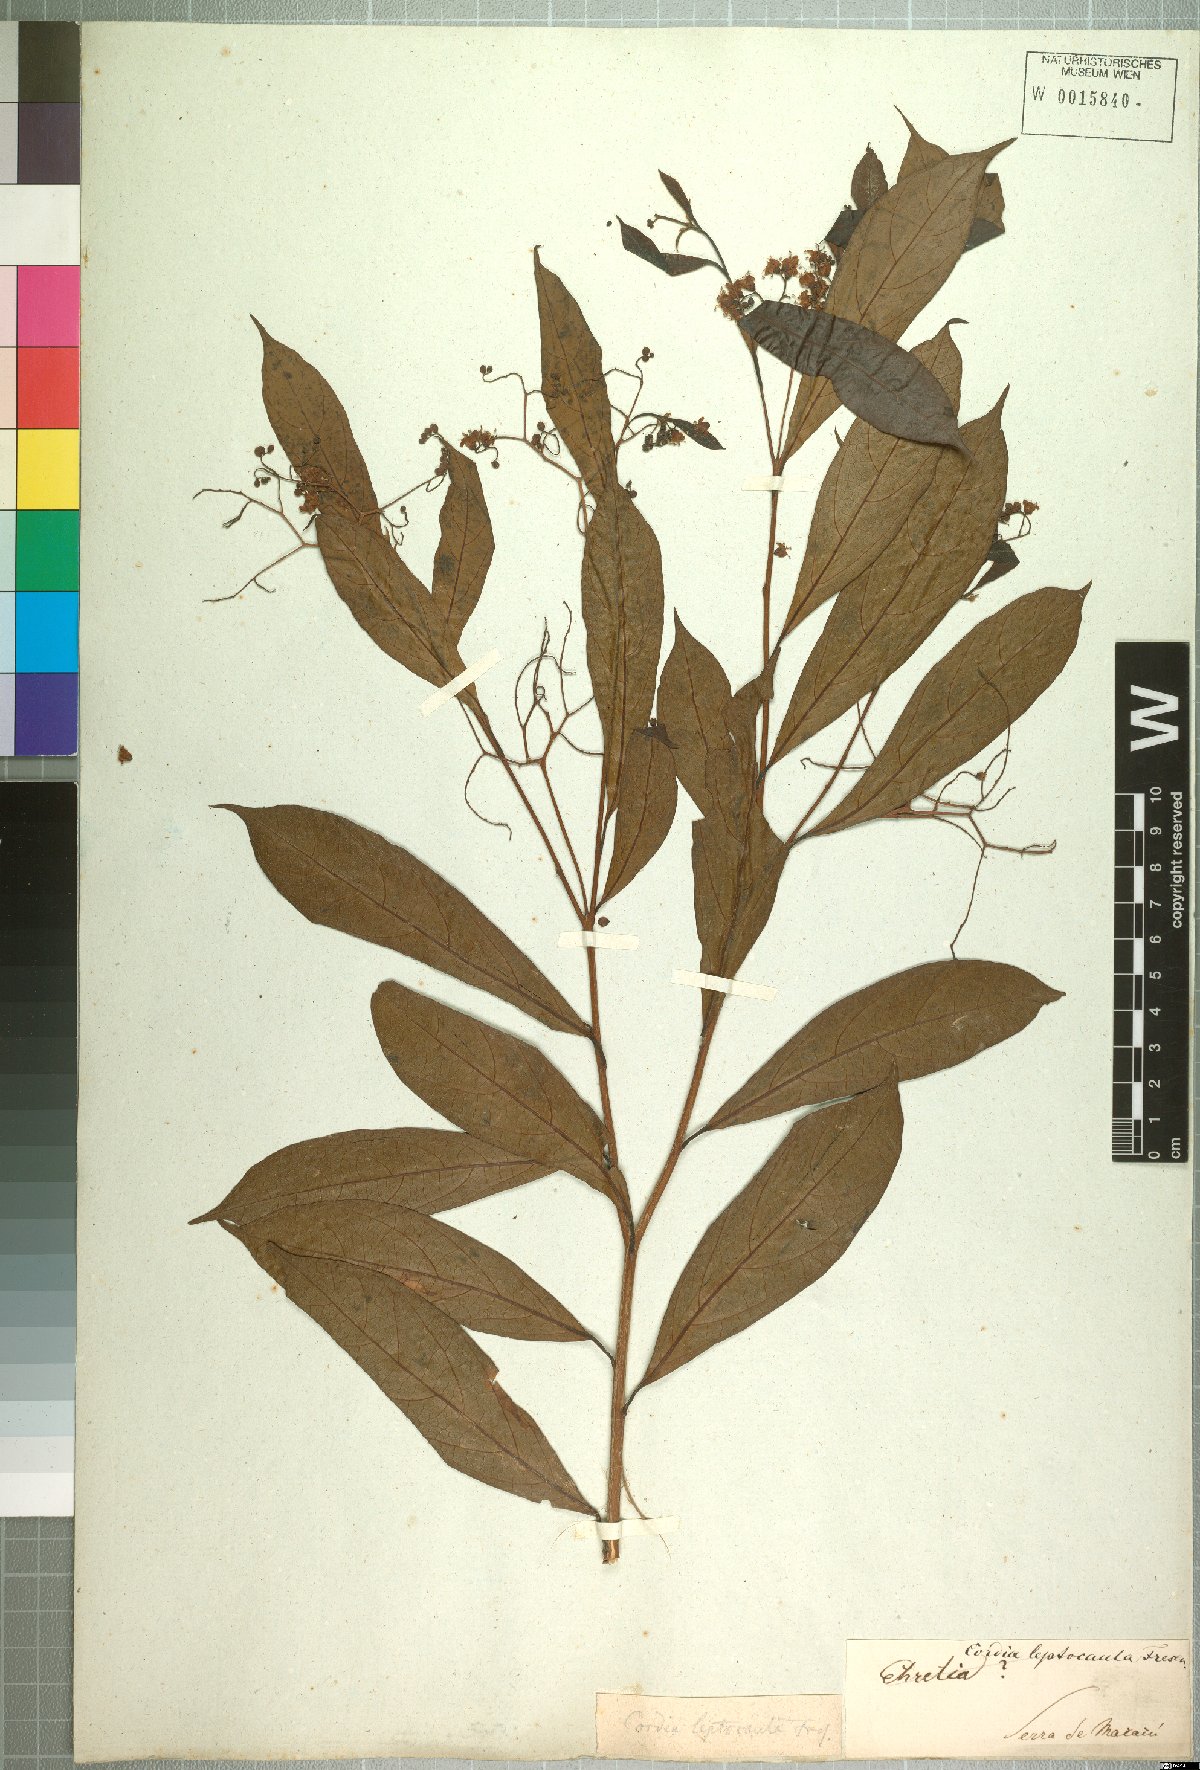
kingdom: Plantae
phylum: Tracheophyta
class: Magnoliopsida
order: Boraginales
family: Cordiaceae
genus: Cordia
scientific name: Cordia ecalyculata
